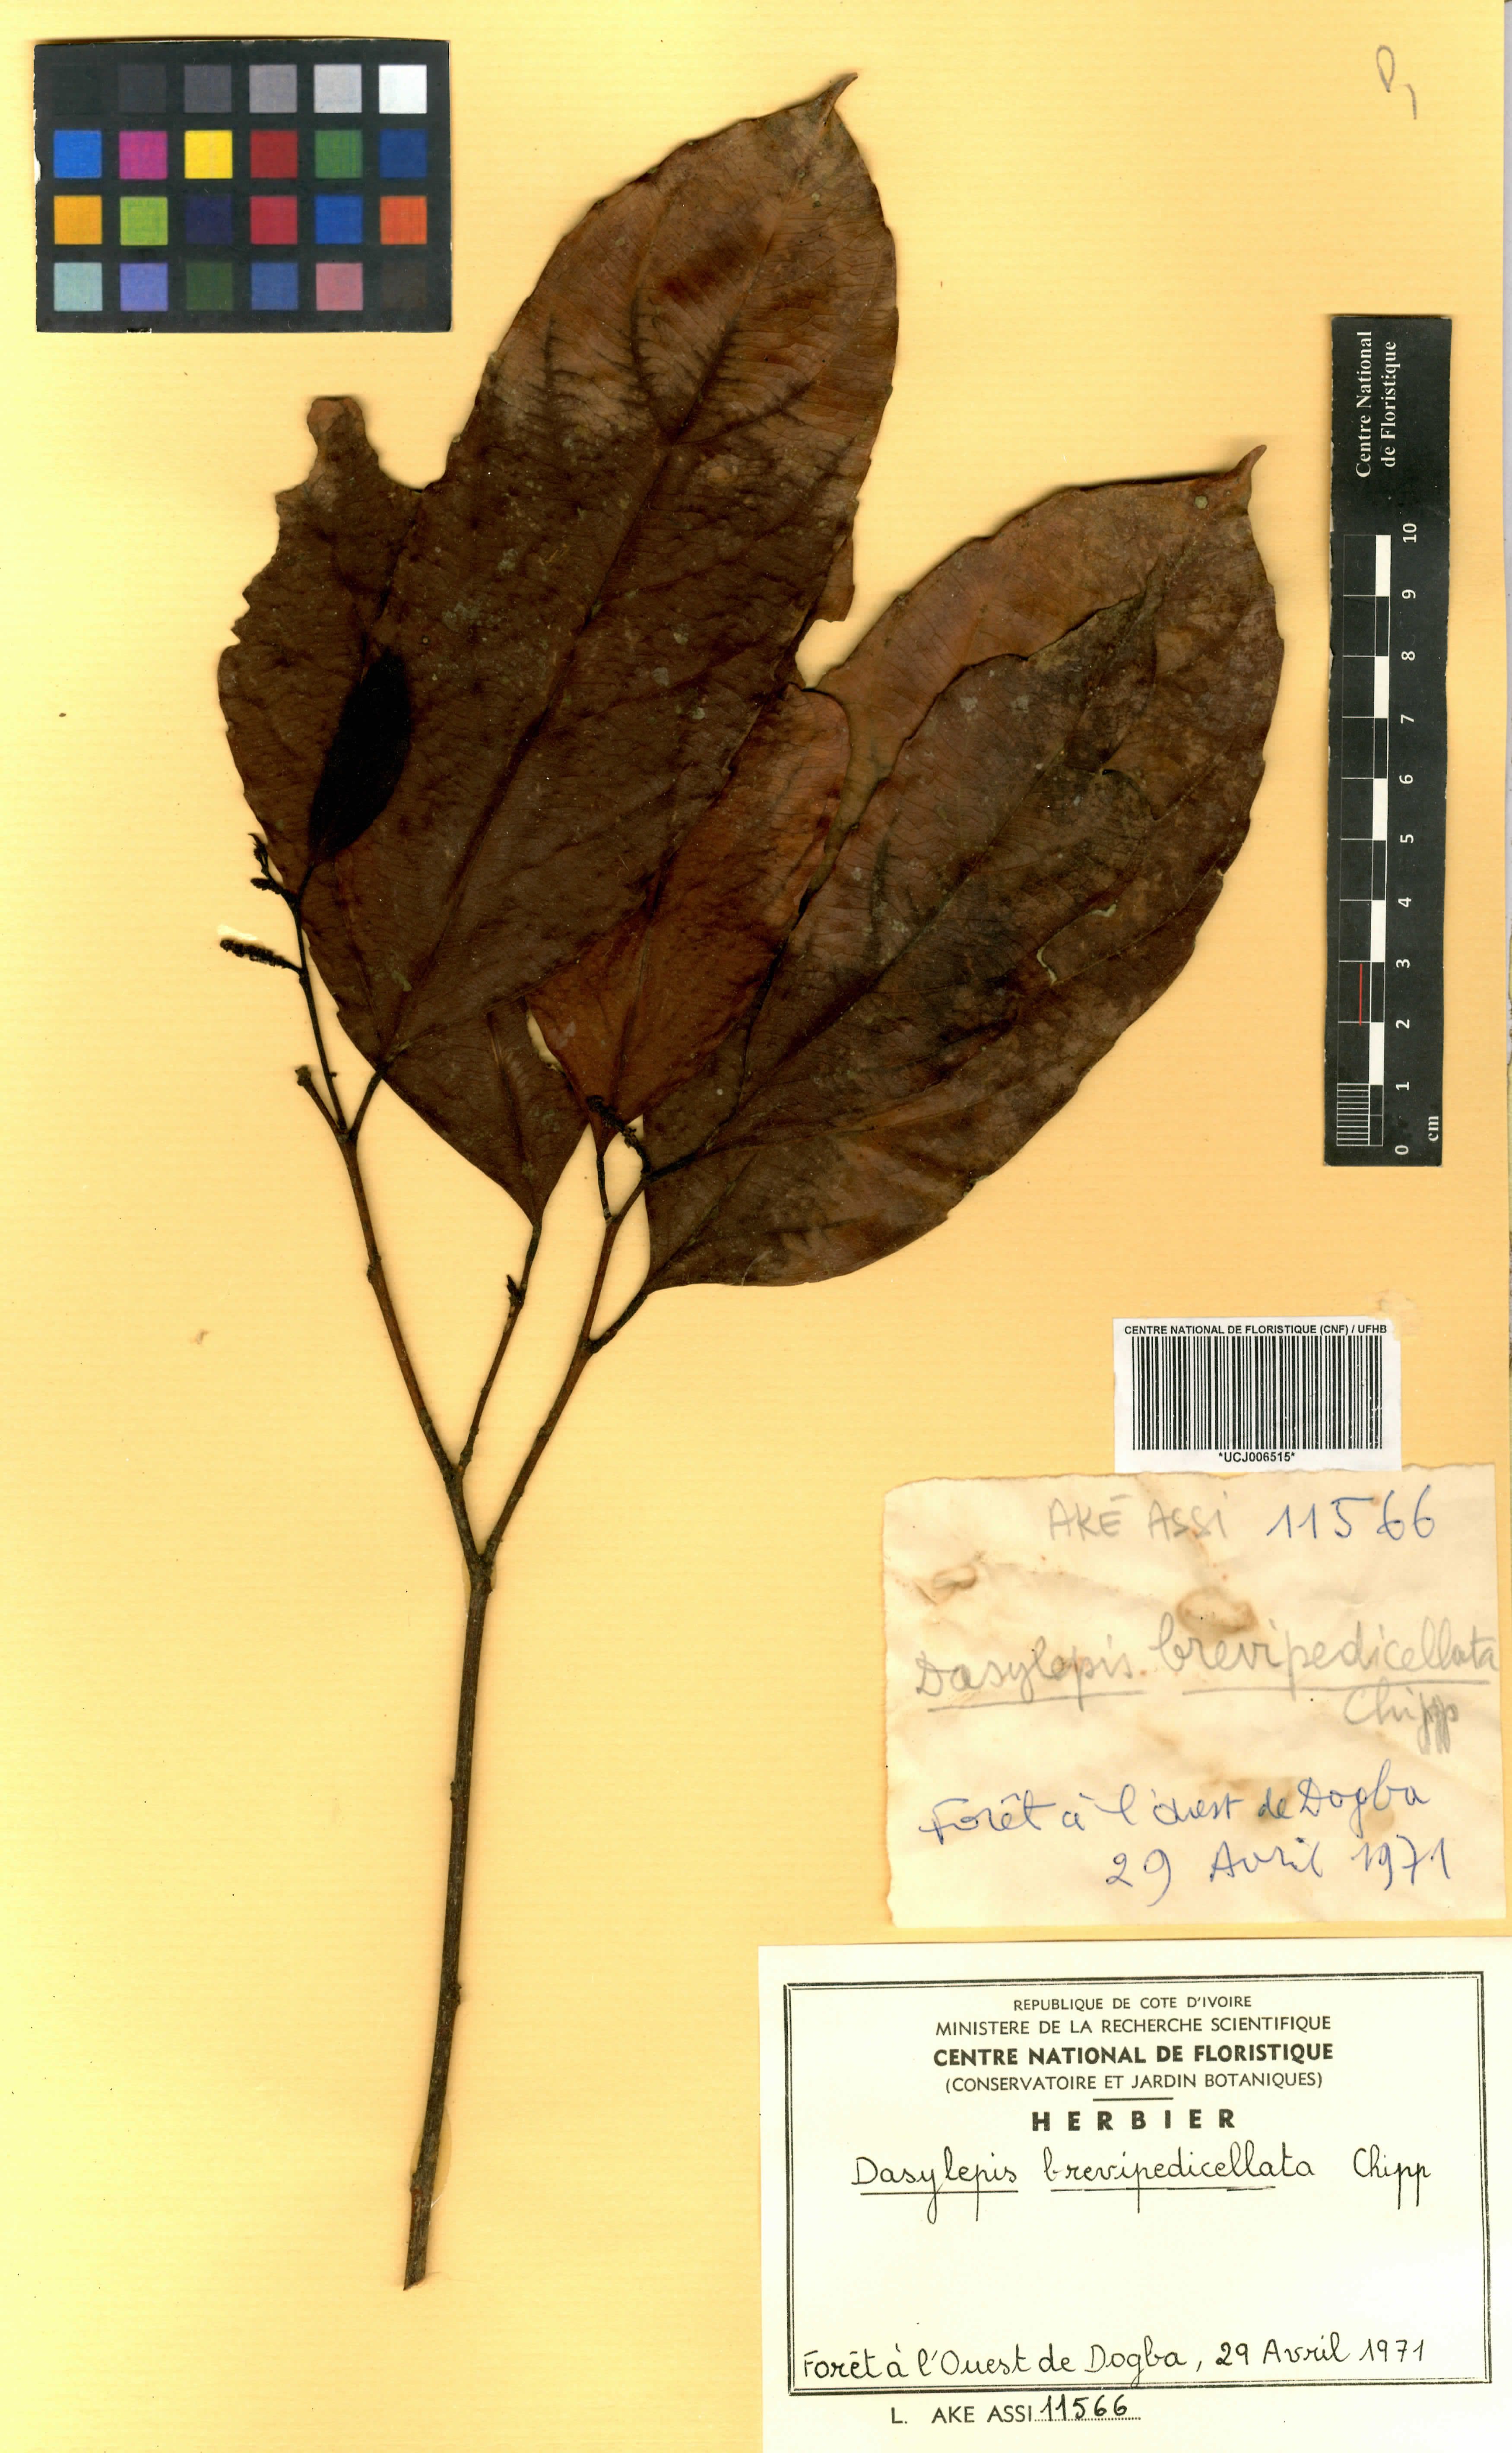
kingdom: Plantae
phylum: Tracheophyta
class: Magnoliopsida
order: Malpighiales
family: Achariaceae
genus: Dasylepis
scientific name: Dasylepis racemosa
